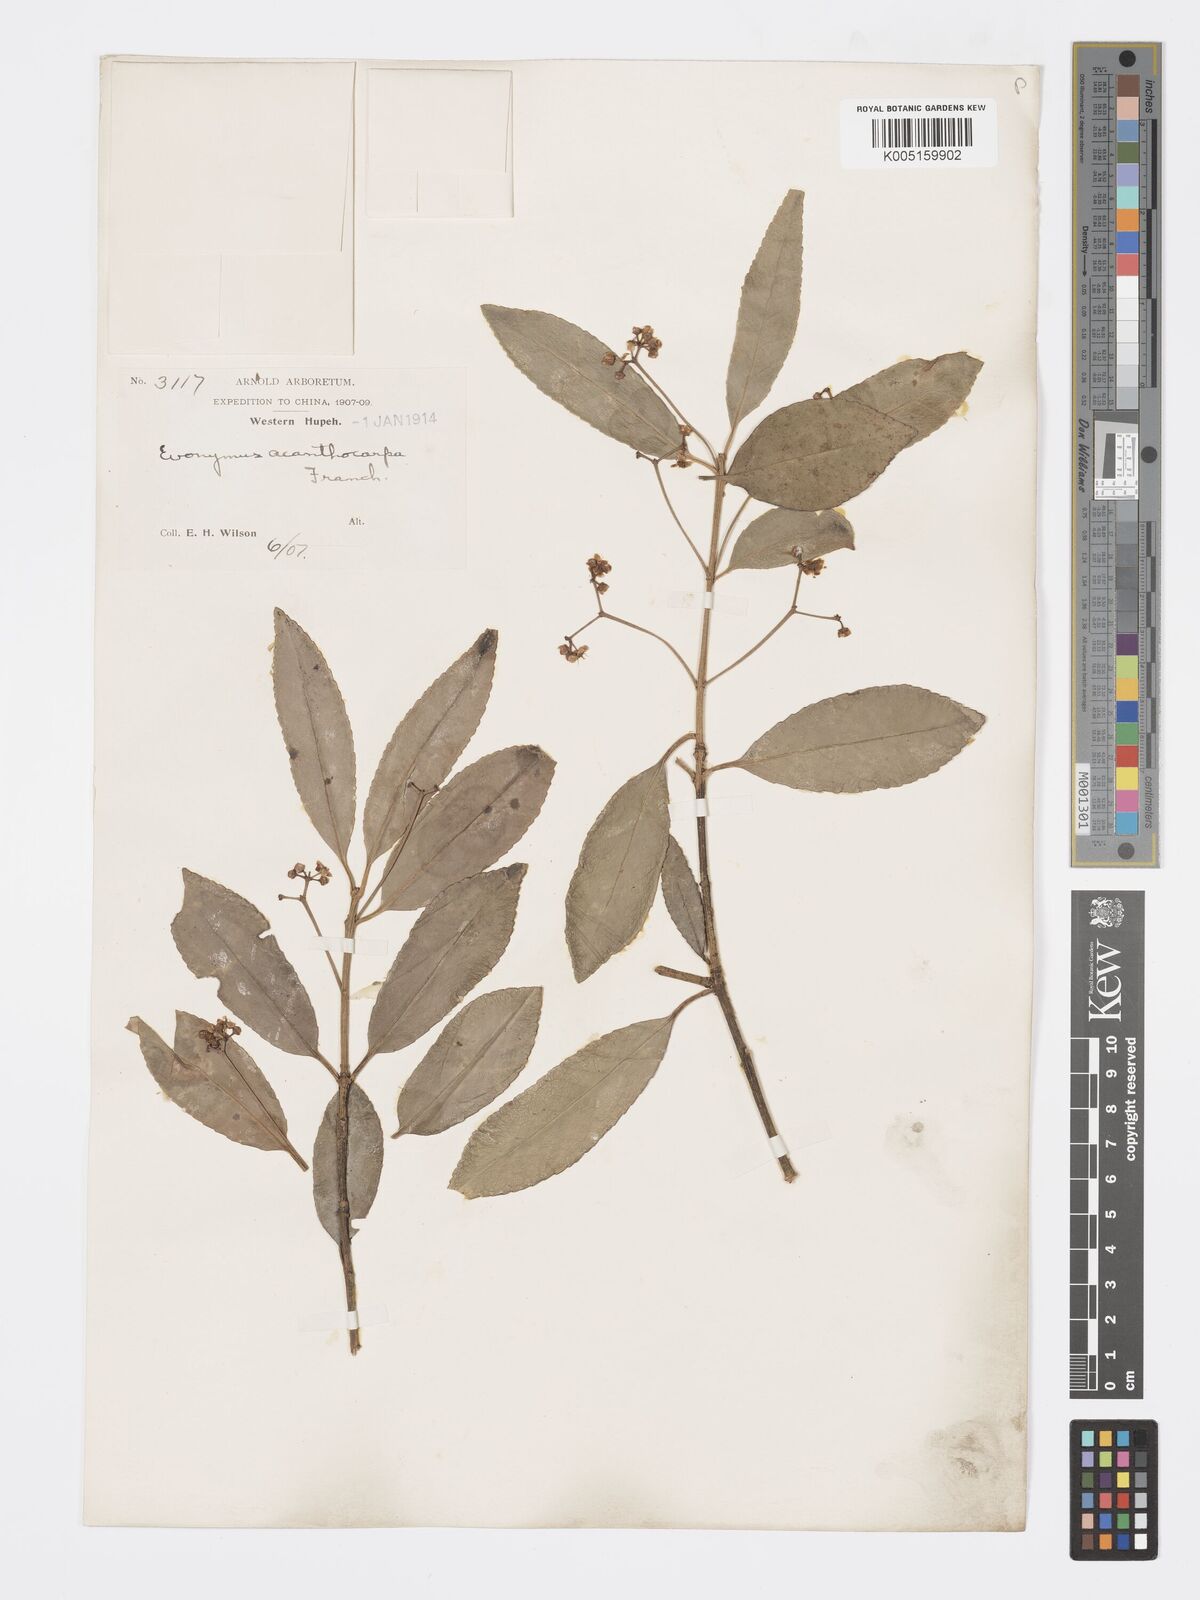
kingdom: Plantae
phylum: Tracheophyta
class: Magnoliopsida
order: Celastrales
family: Celastraceae
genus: Euonymus
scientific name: Euonymus acanthocarpus
